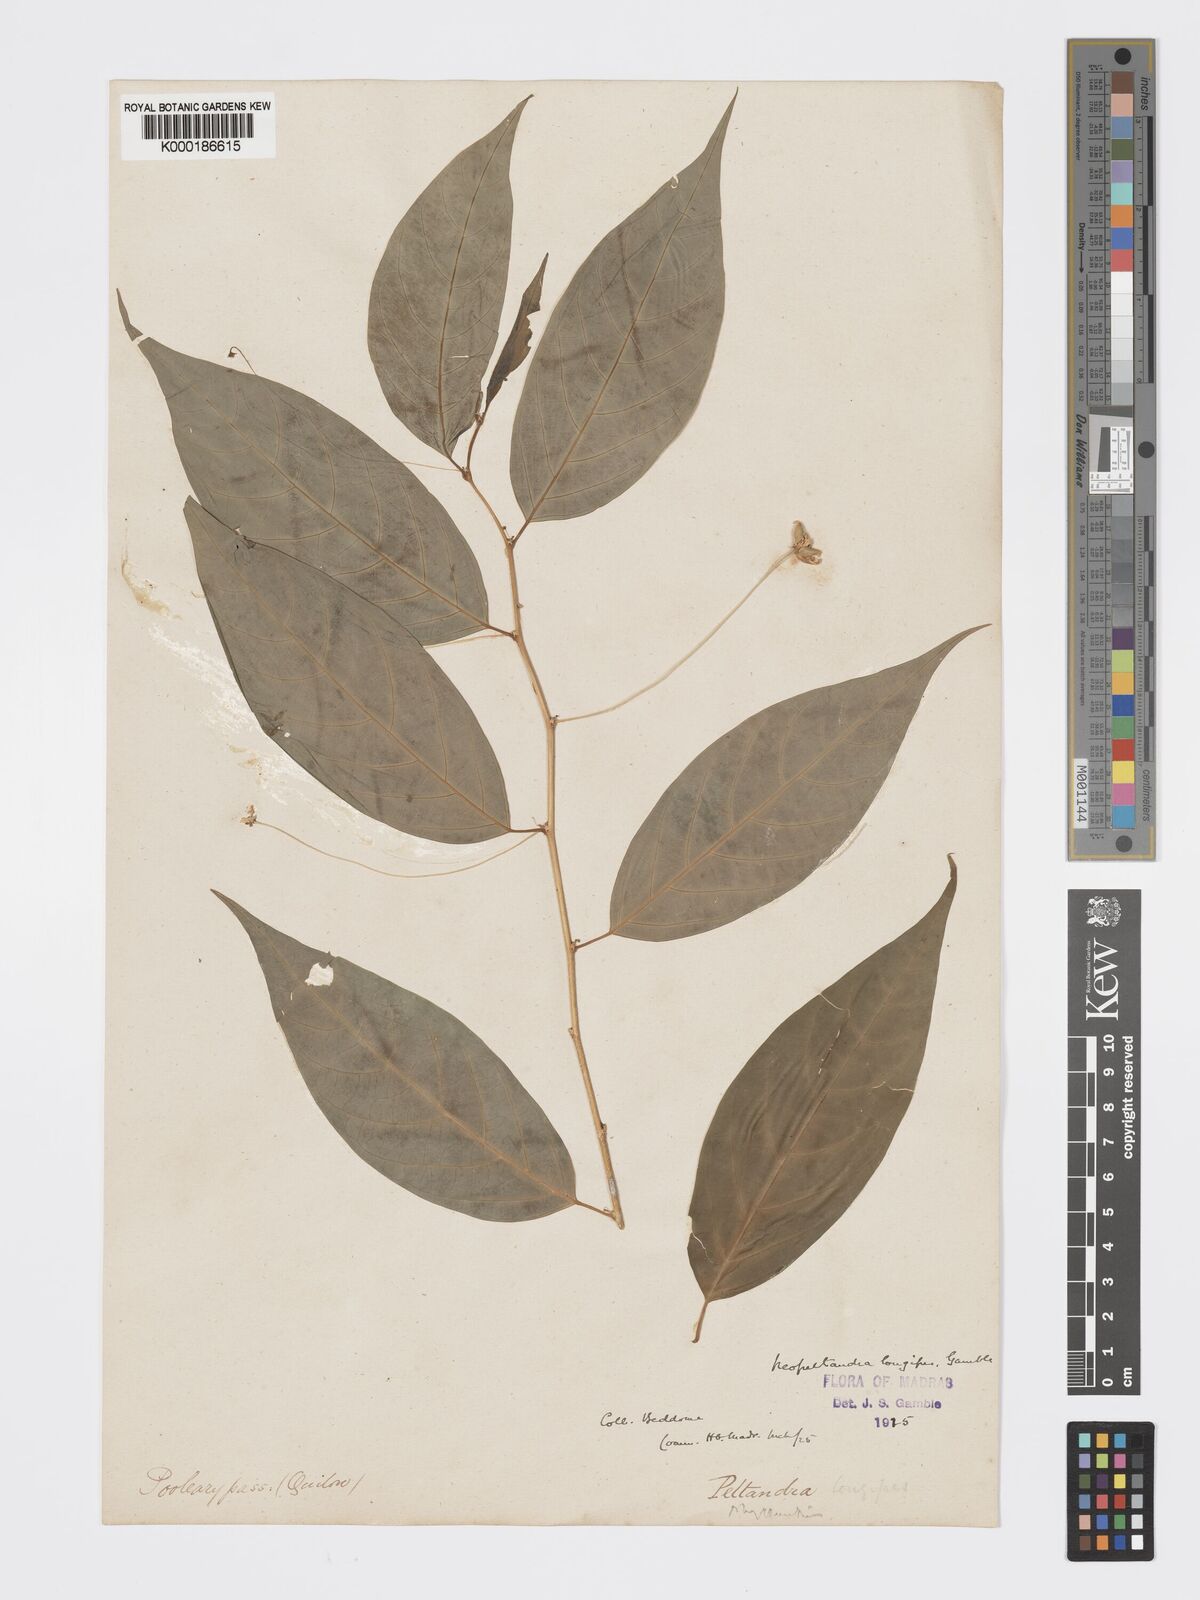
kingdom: Plantae
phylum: Tracheophyta
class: Magnoliopsida
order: Malpighiales
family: Phyllanthaceae
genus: Meineckia
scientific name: Meineckia longipes
